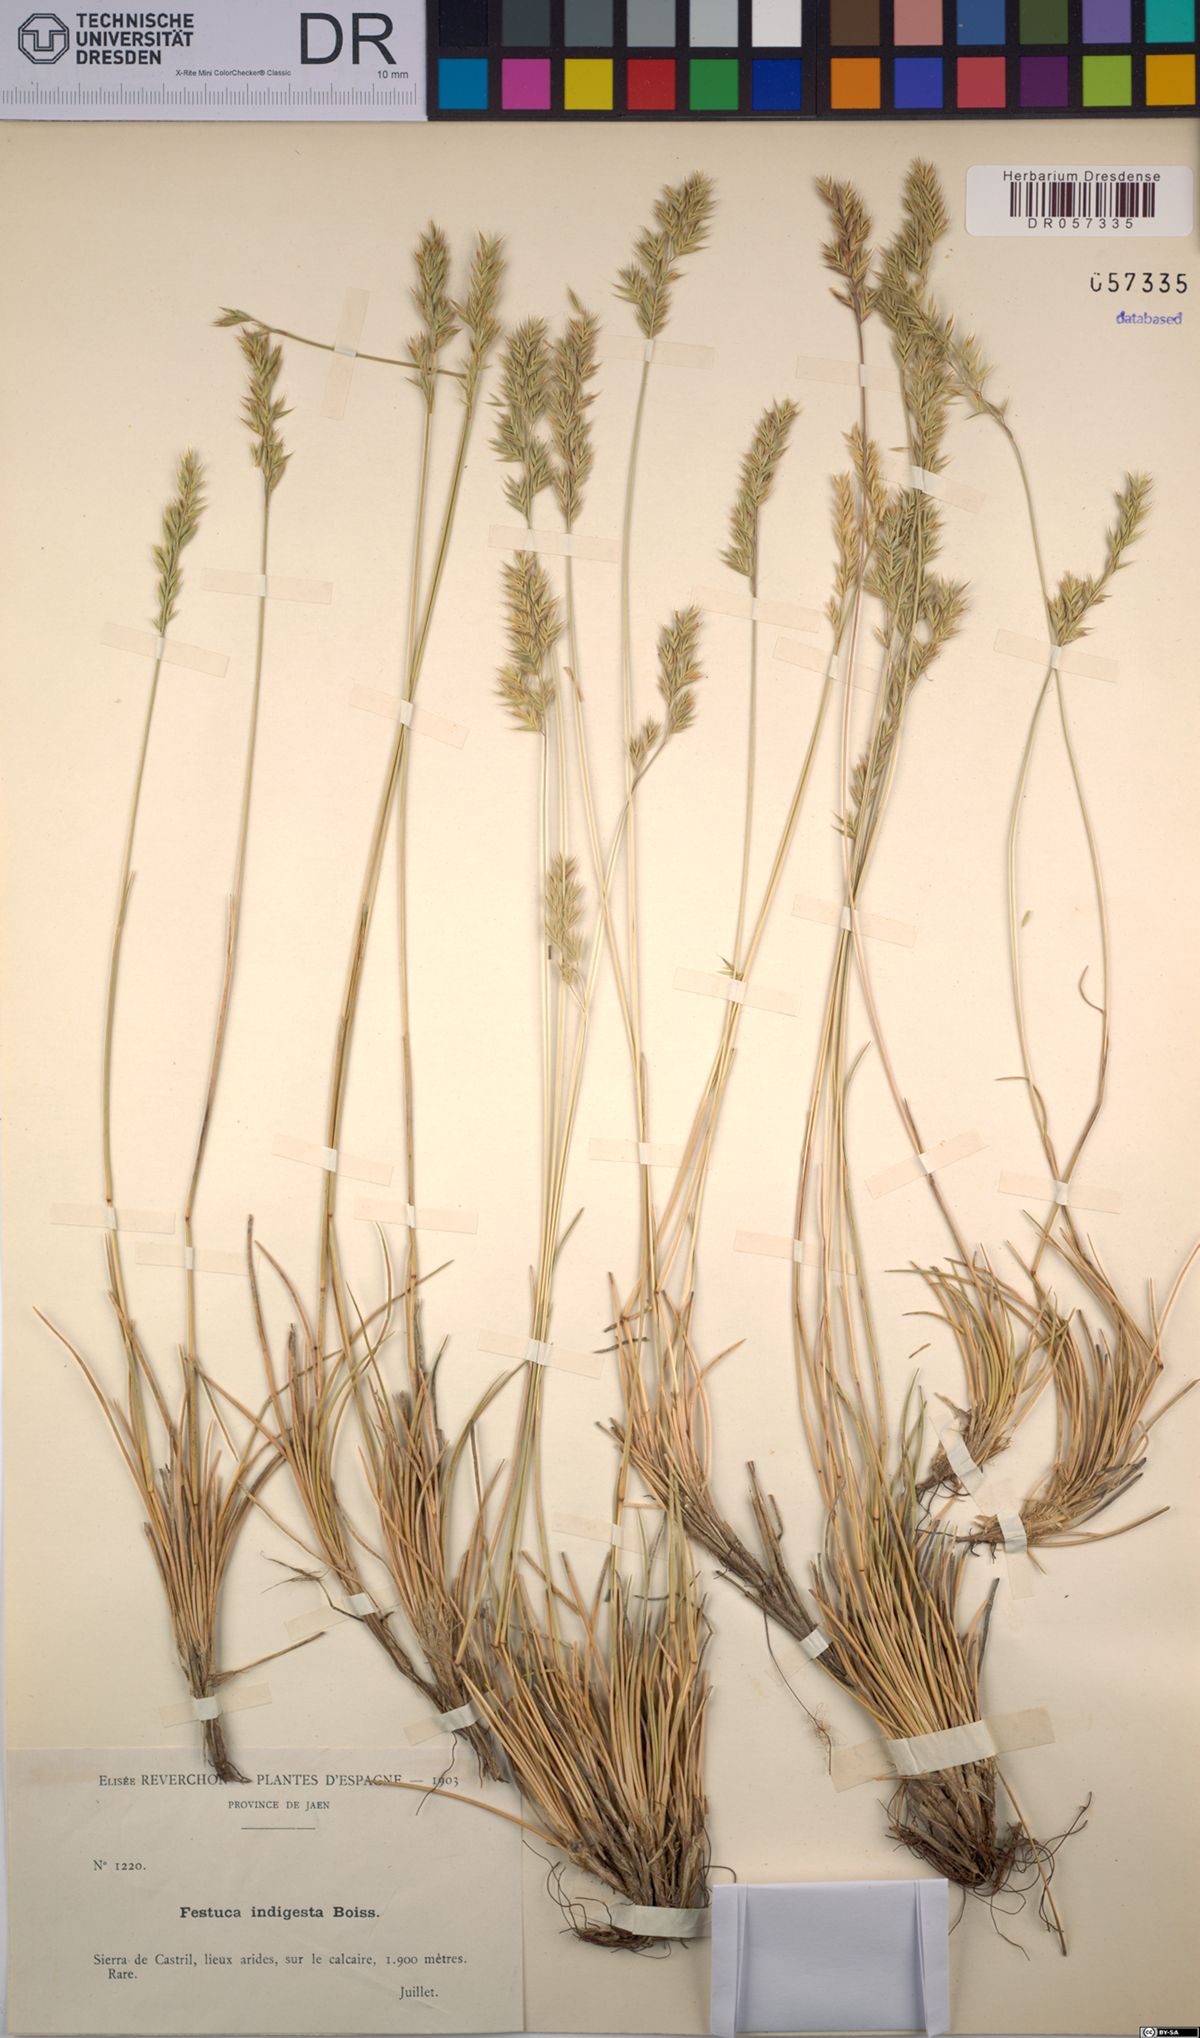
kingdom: Plantae
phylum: Tracheophyta
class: Liliopsida
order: Poales
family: Poaceae
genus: Festuca
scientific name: Festuca indigesta
